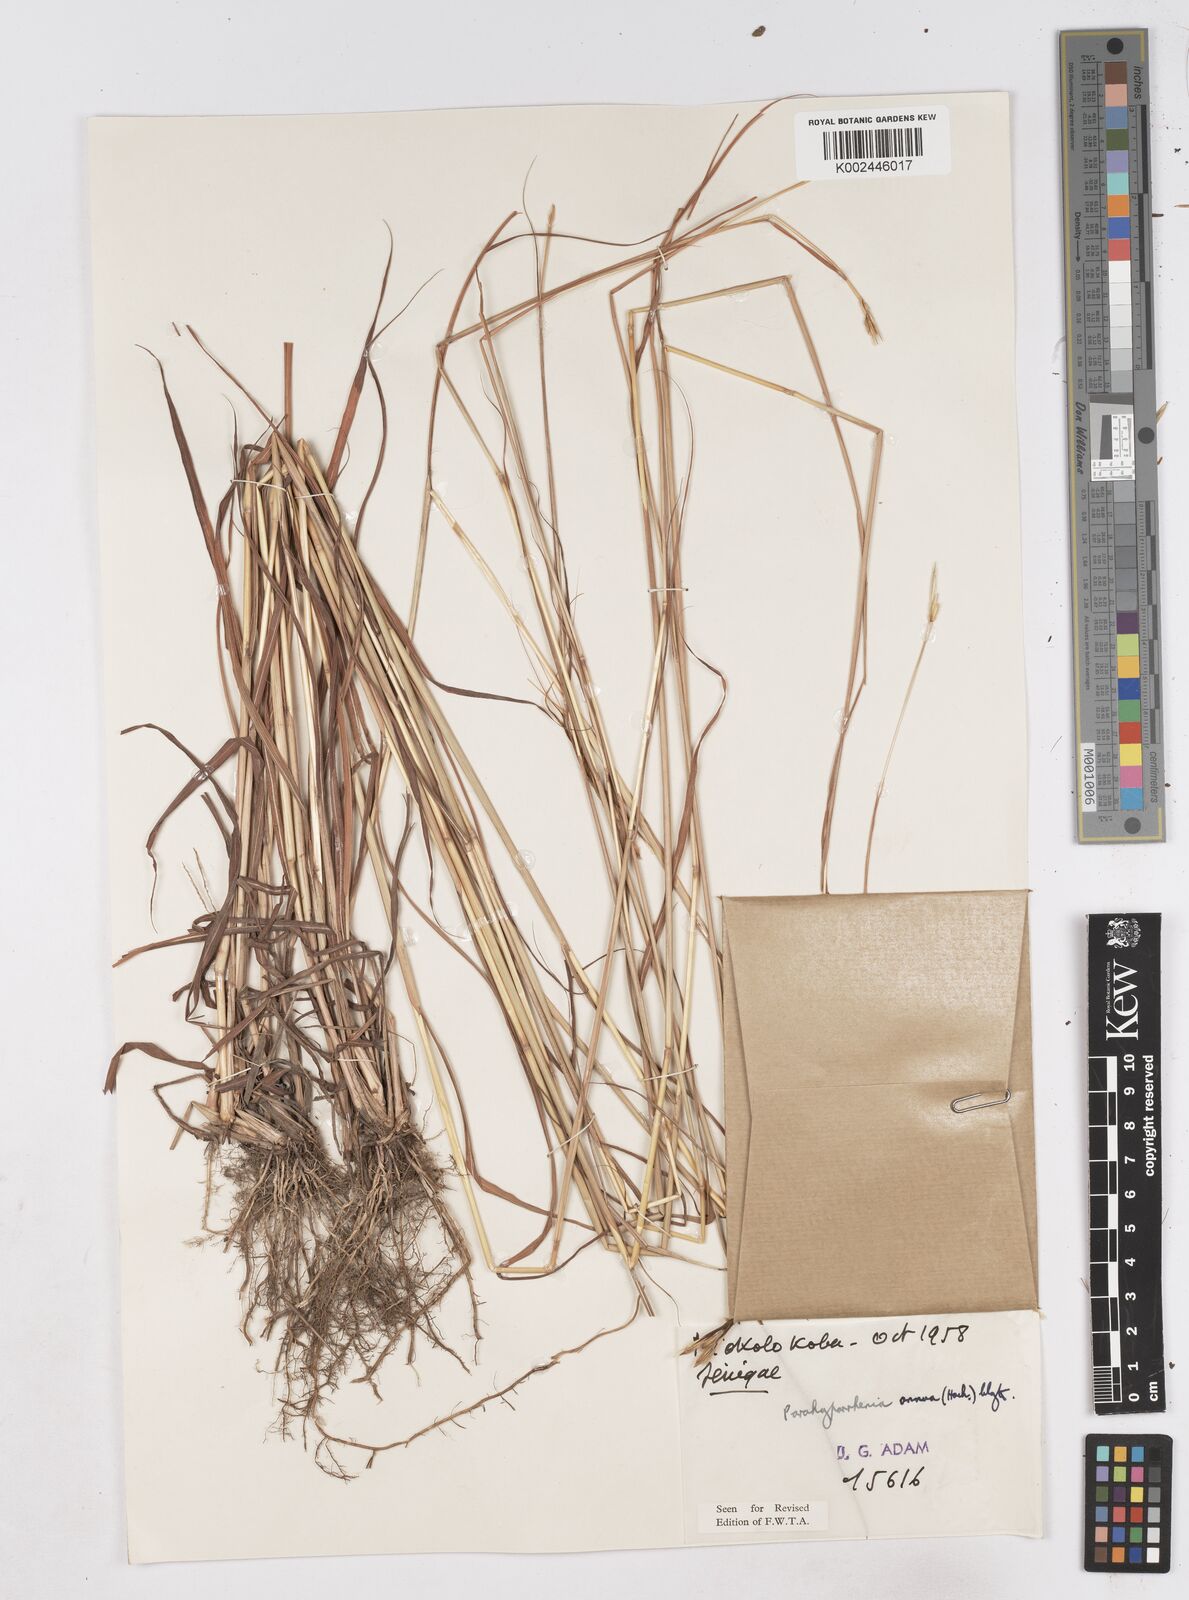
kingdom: Plantae
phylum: Tracheophyta
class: Liliopsida
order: Poales
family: Poaceae
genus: Parahyparrhenia
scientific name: Parahyparrhenia annua
